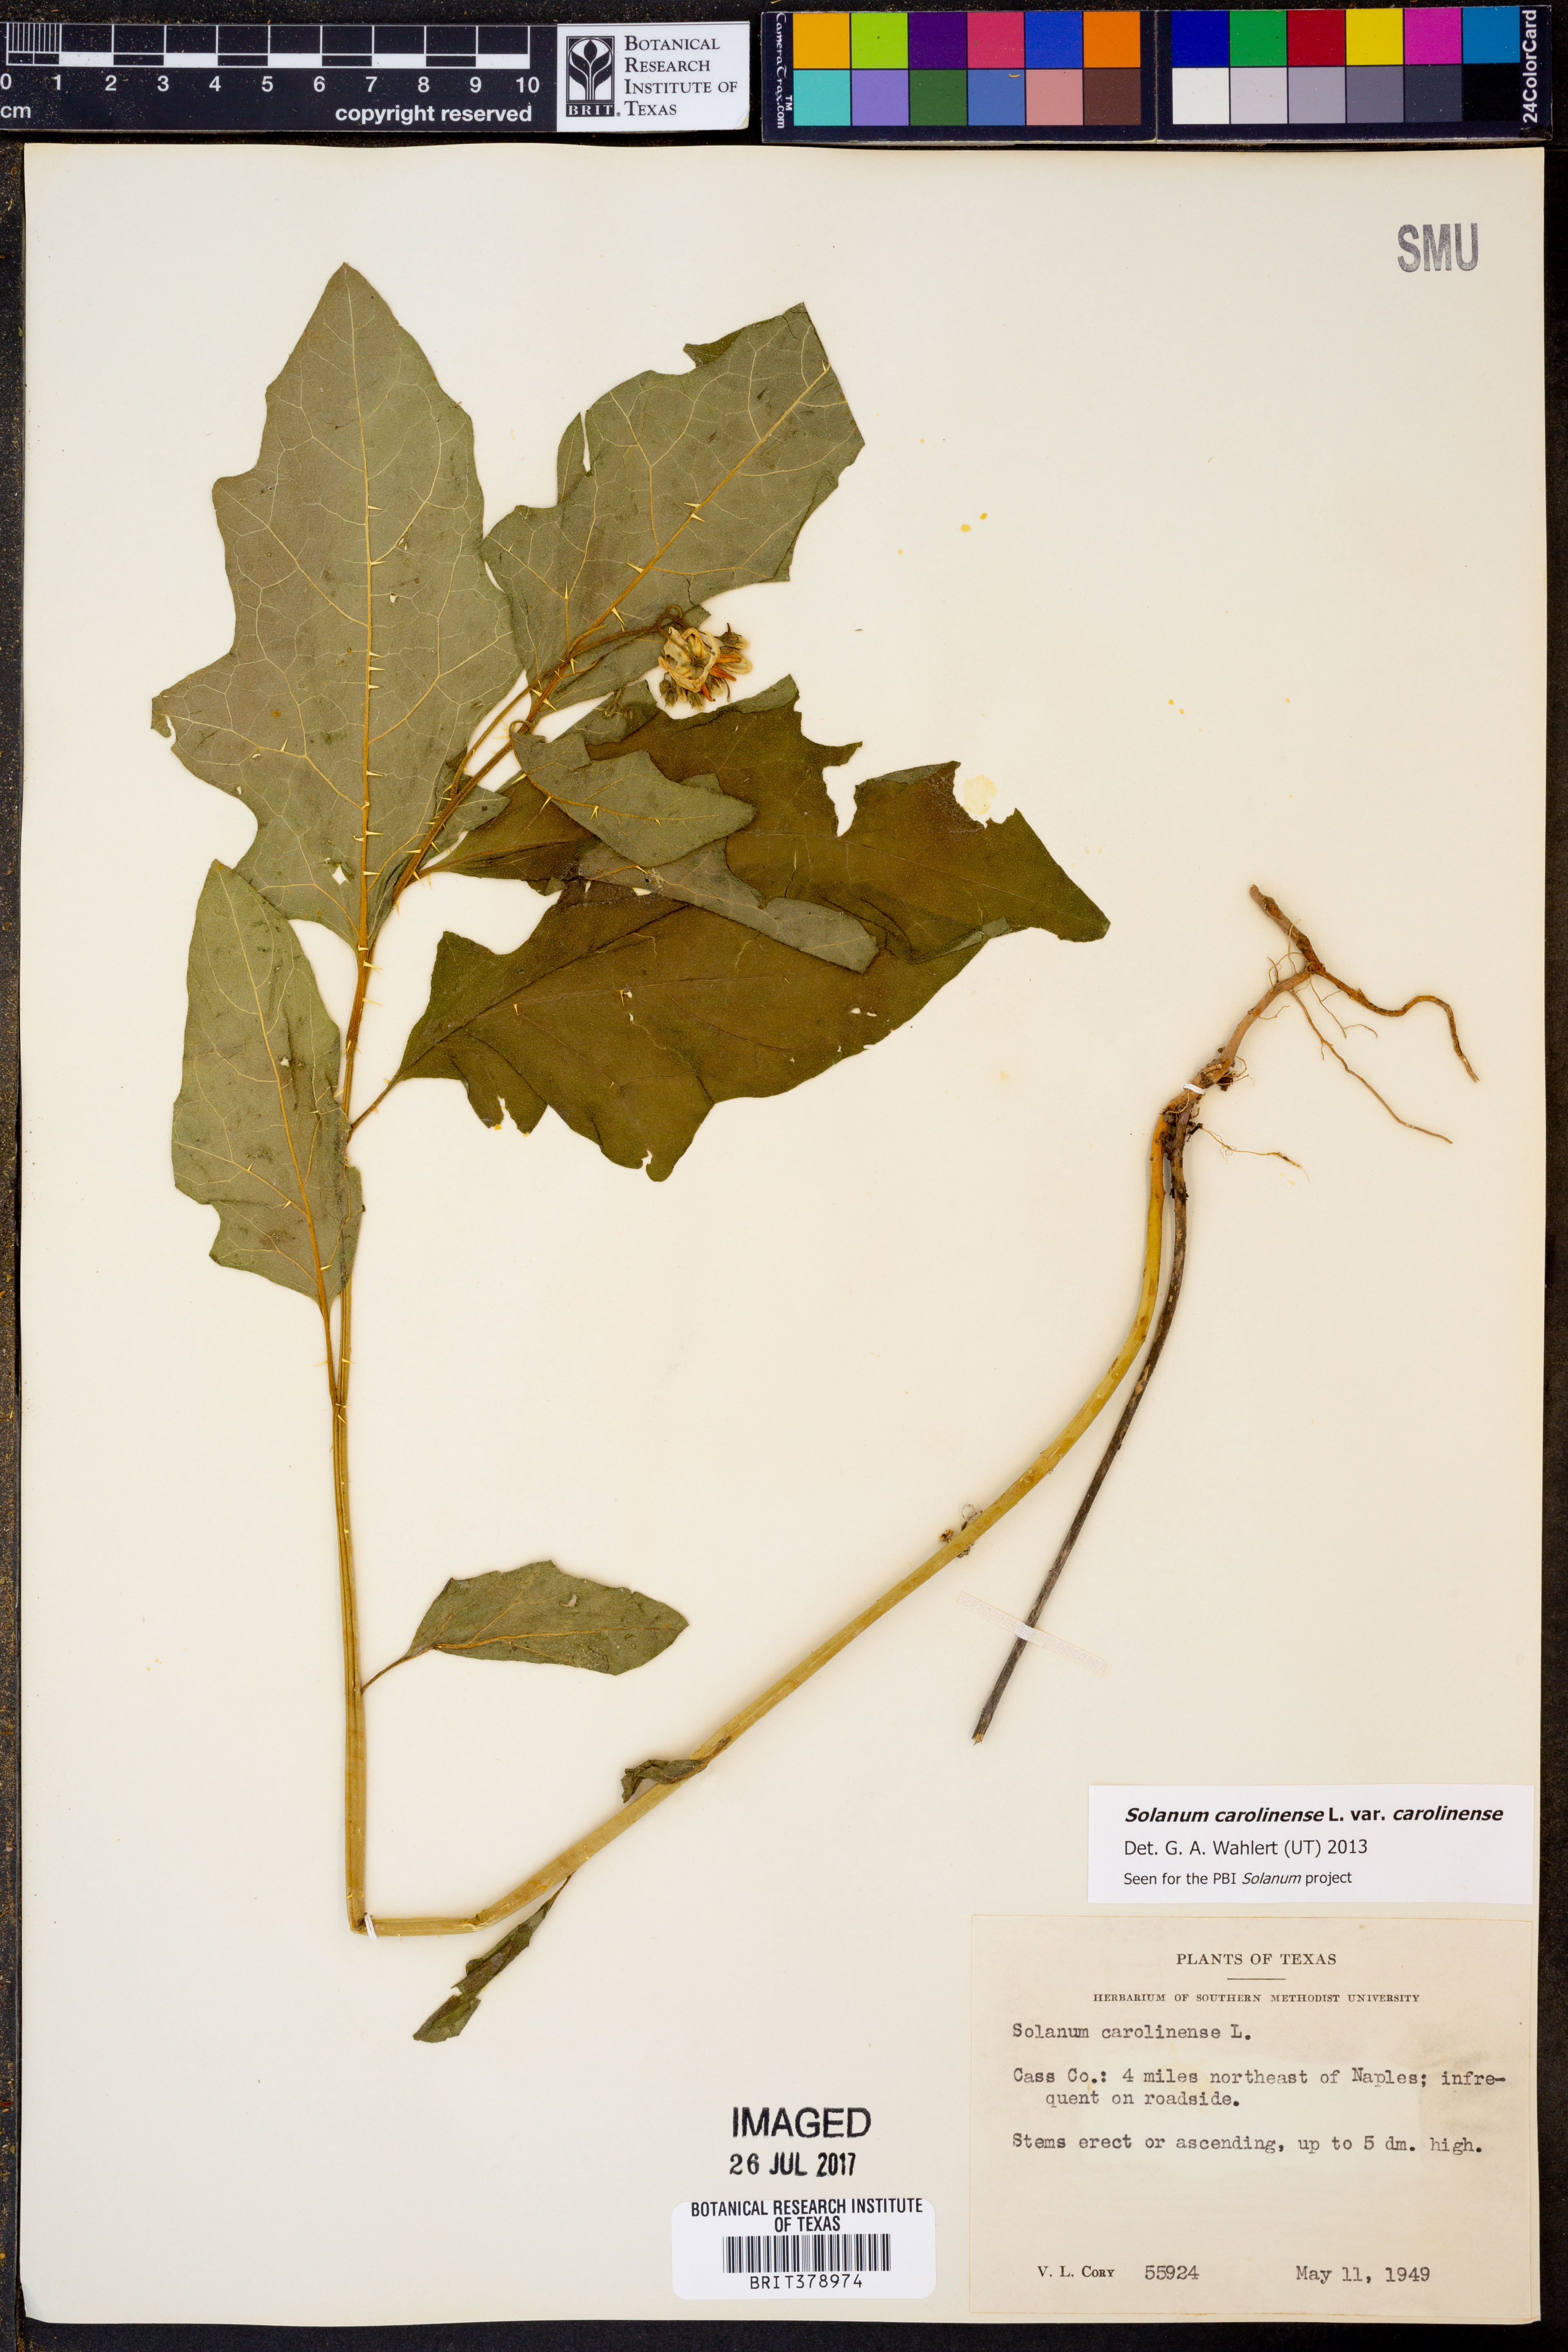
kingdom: Plantae
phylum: Tracheophyta
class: Magnoliopsida
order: Solanales
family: Solanaceae
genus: Solanum
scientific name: Solanum carolinense
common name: Horse-nettle
